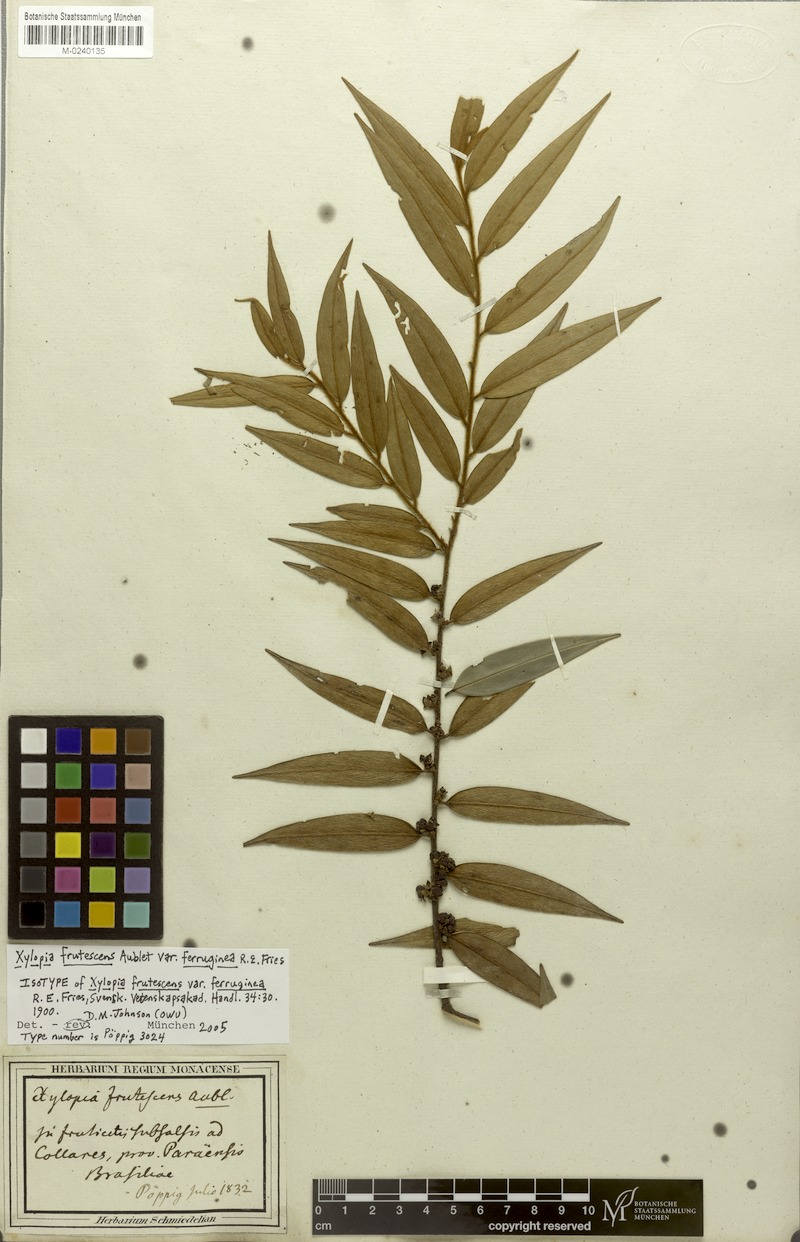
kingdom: Plantae
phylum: Tracheophyta
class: Magnoliopsida
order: Magnoliales
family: Annonaceae
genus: Xylopia
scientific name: Xylopia frutescens
